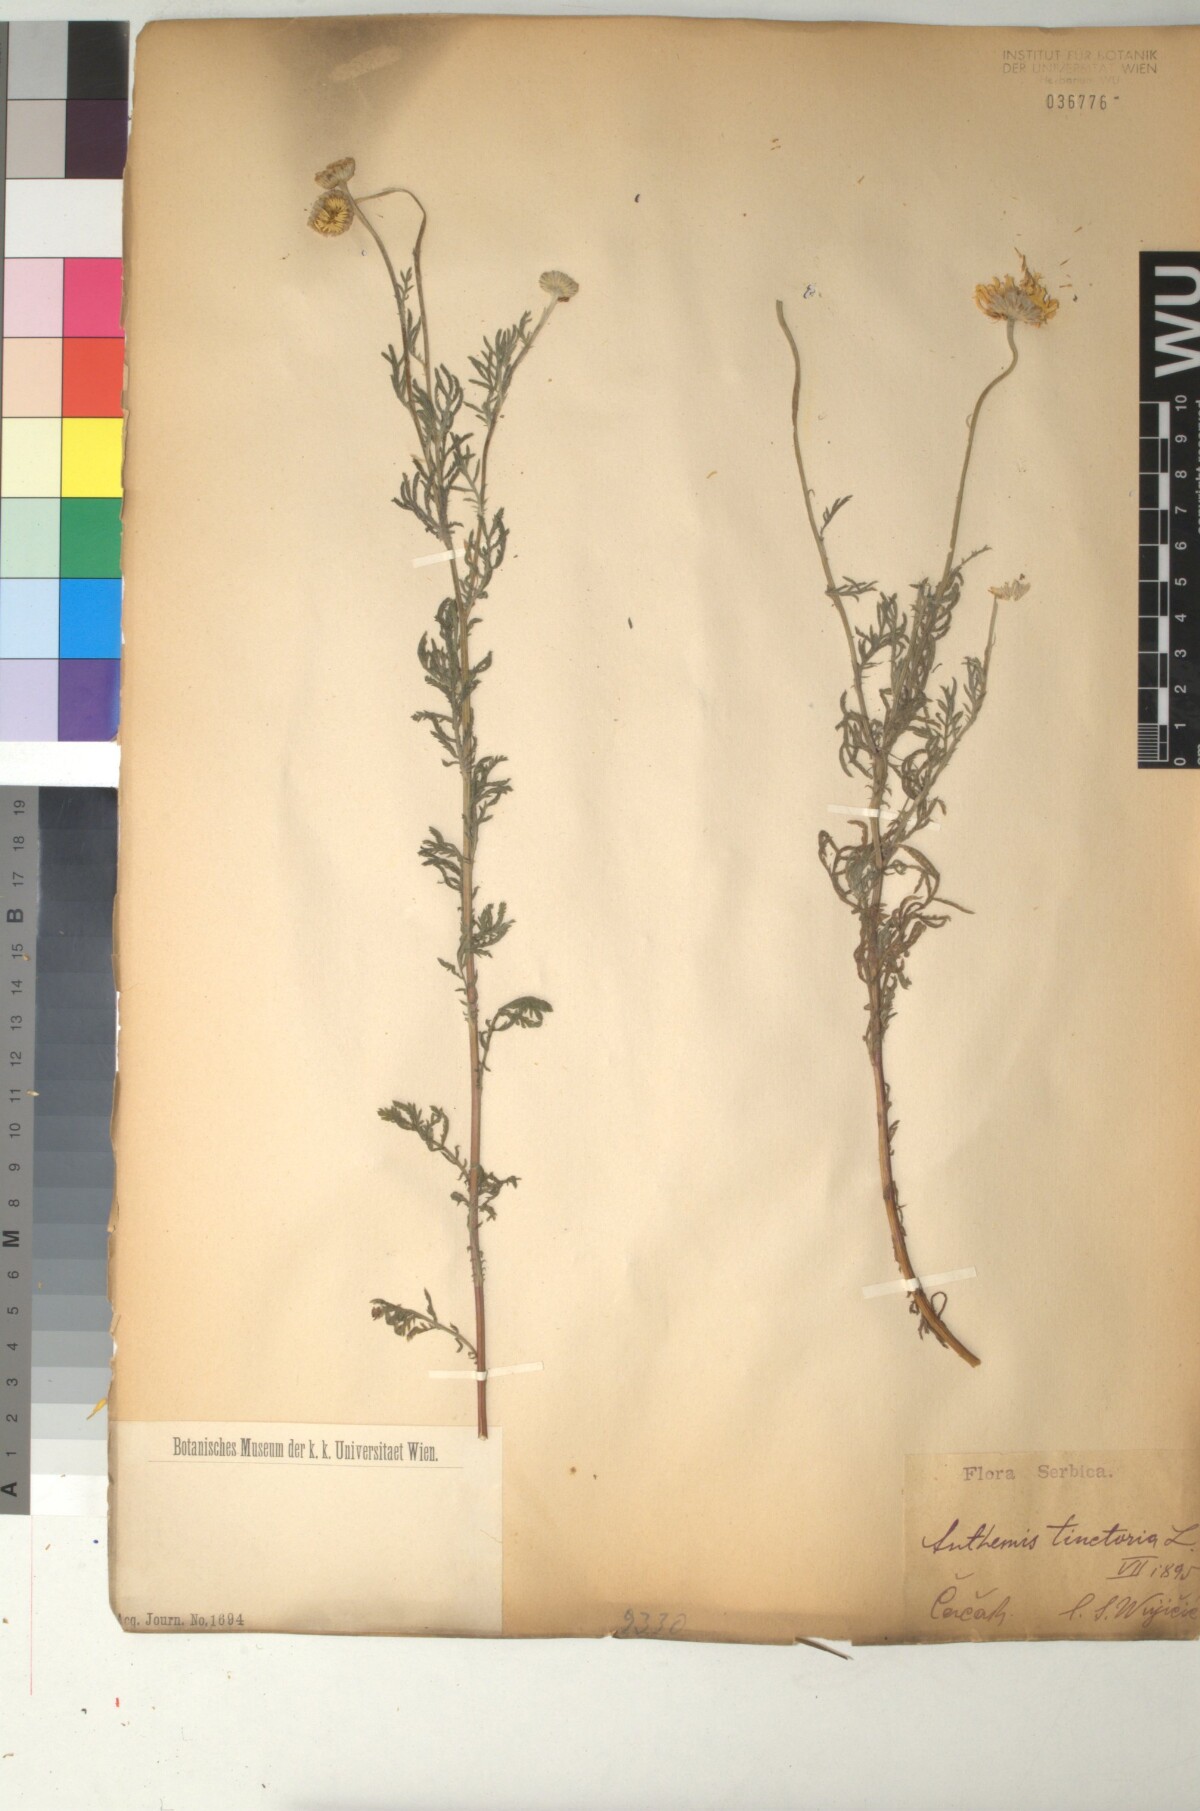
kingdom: Plantae
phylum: Tracheophyta
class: Magnoliopsida
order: Asterales
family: Asteraceae
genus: Cota
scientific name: Cota tinctoria
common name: Golden chamomile
